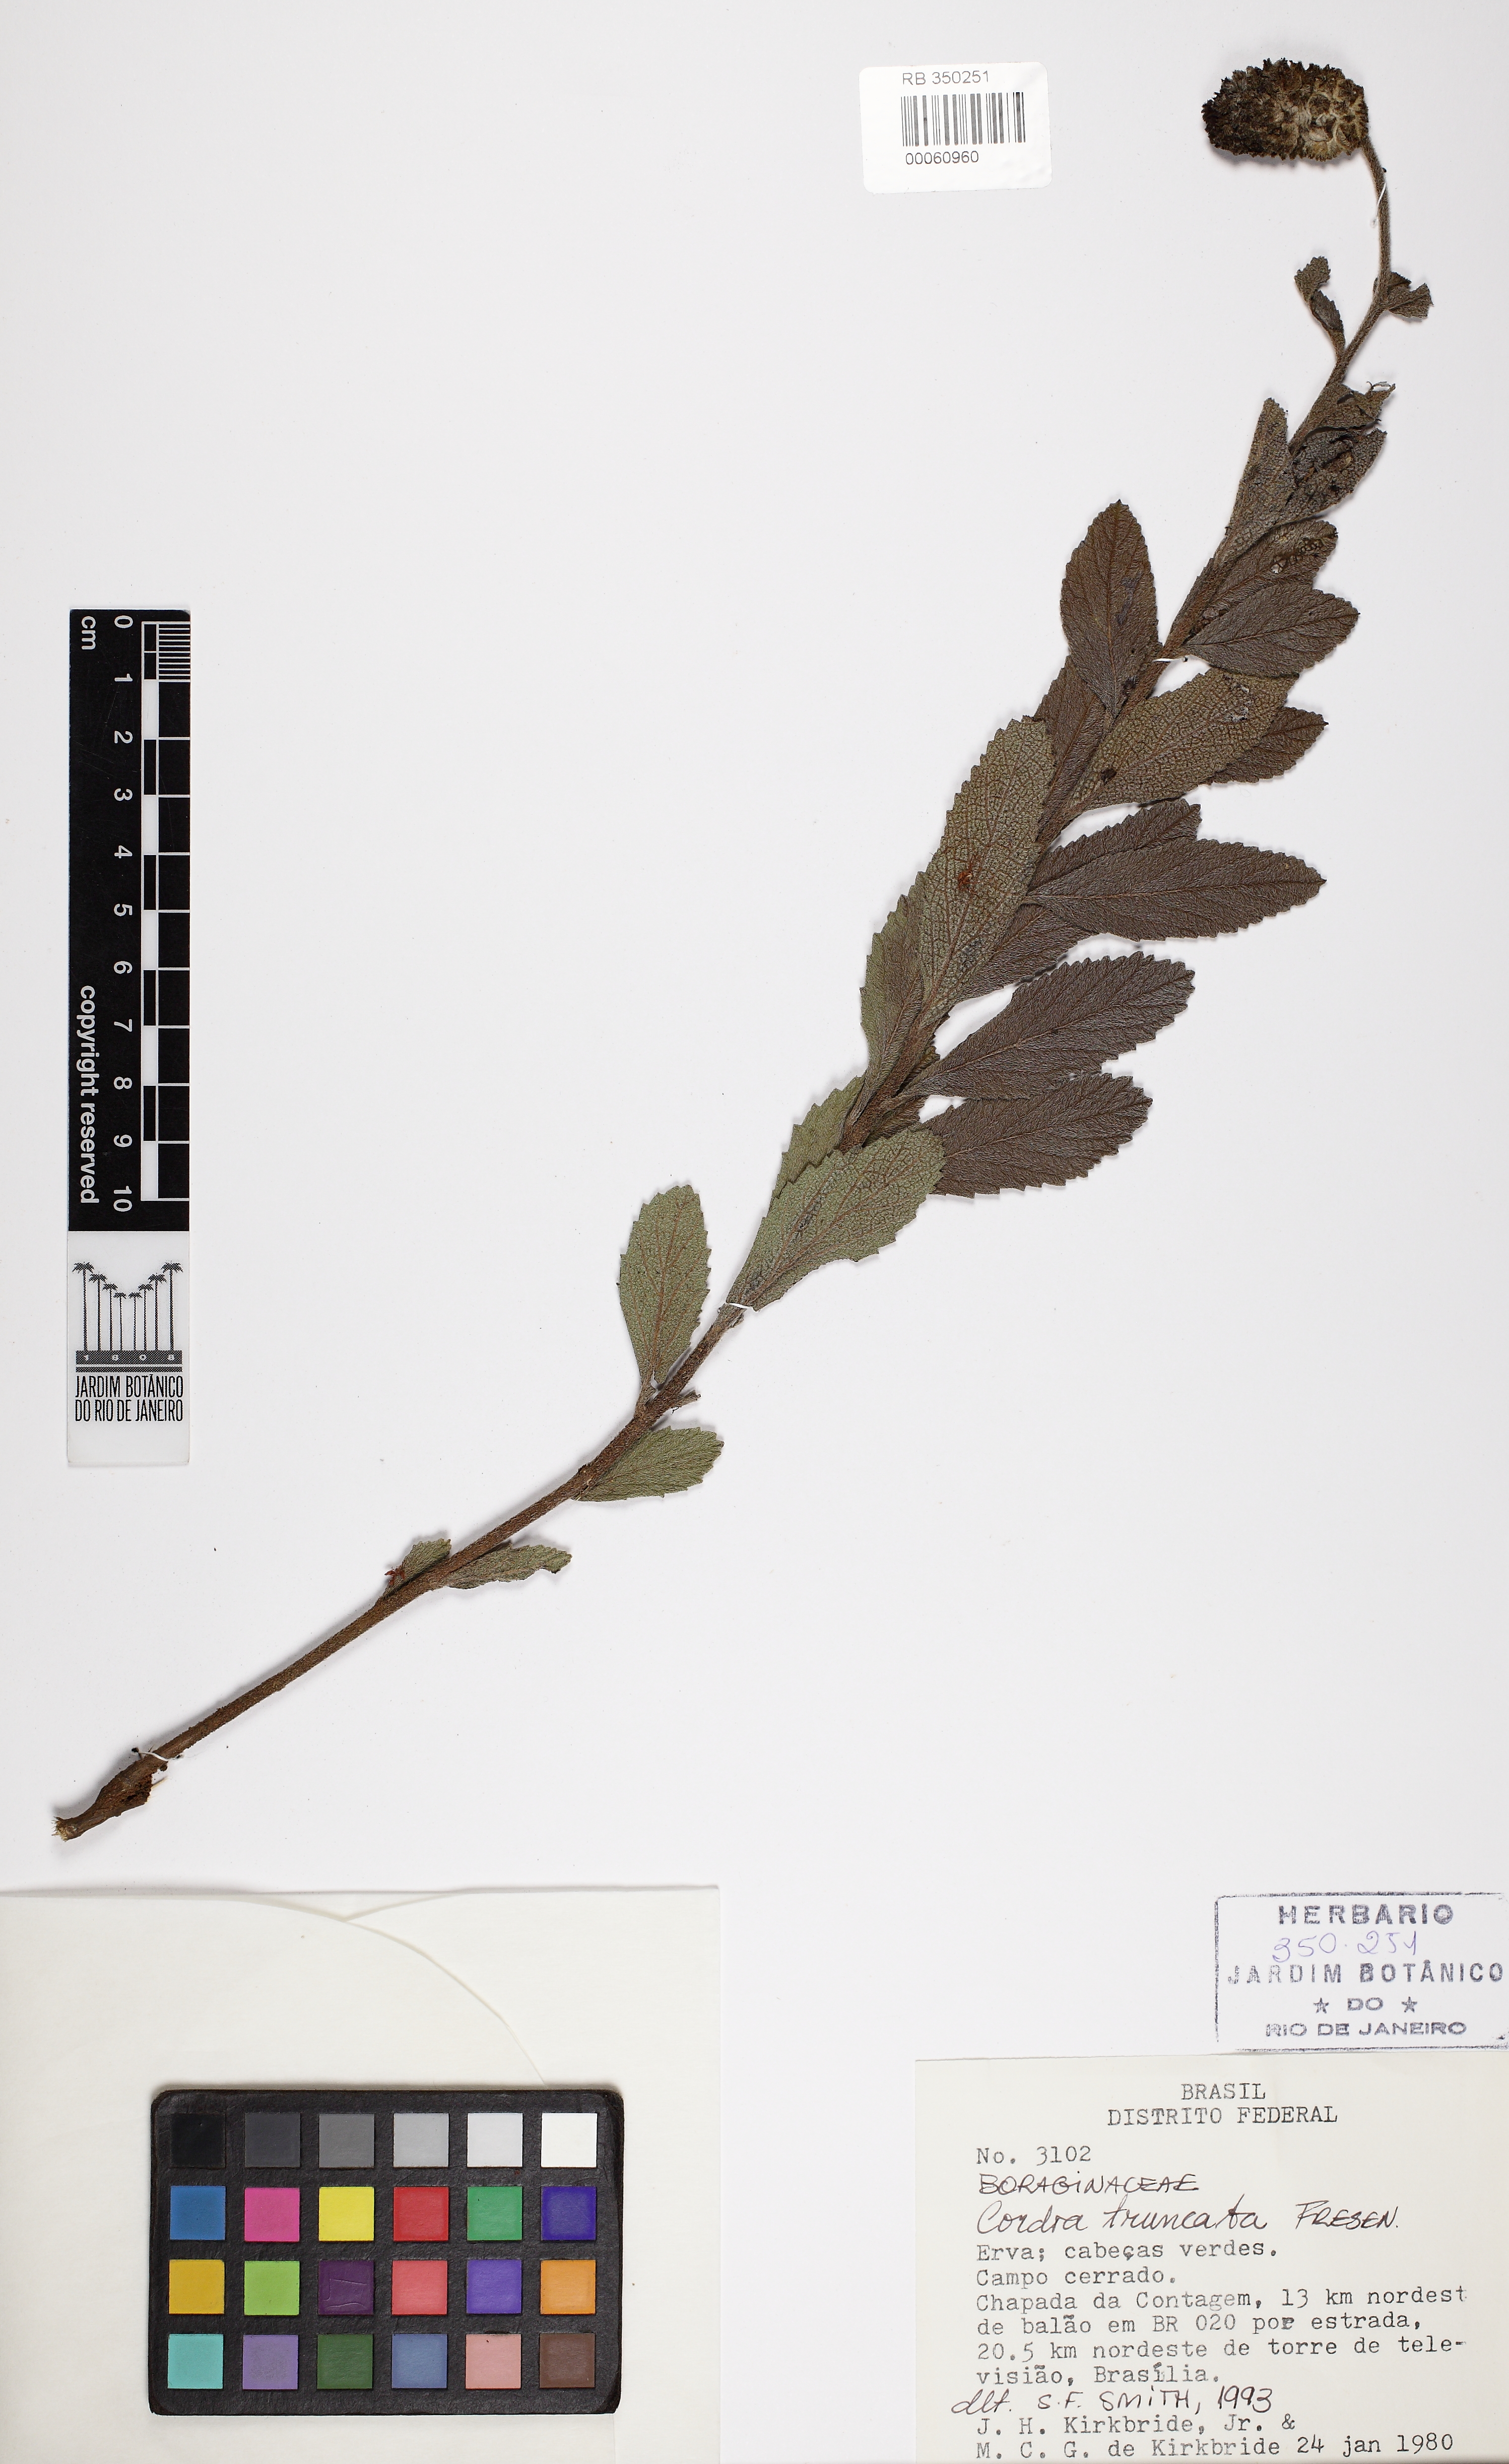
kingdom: Plantae
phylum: Tracheophyta
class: Magnoliopsida
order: Boraginales
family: Cordiaceae
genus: Varronia
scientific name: Varronia truncata
